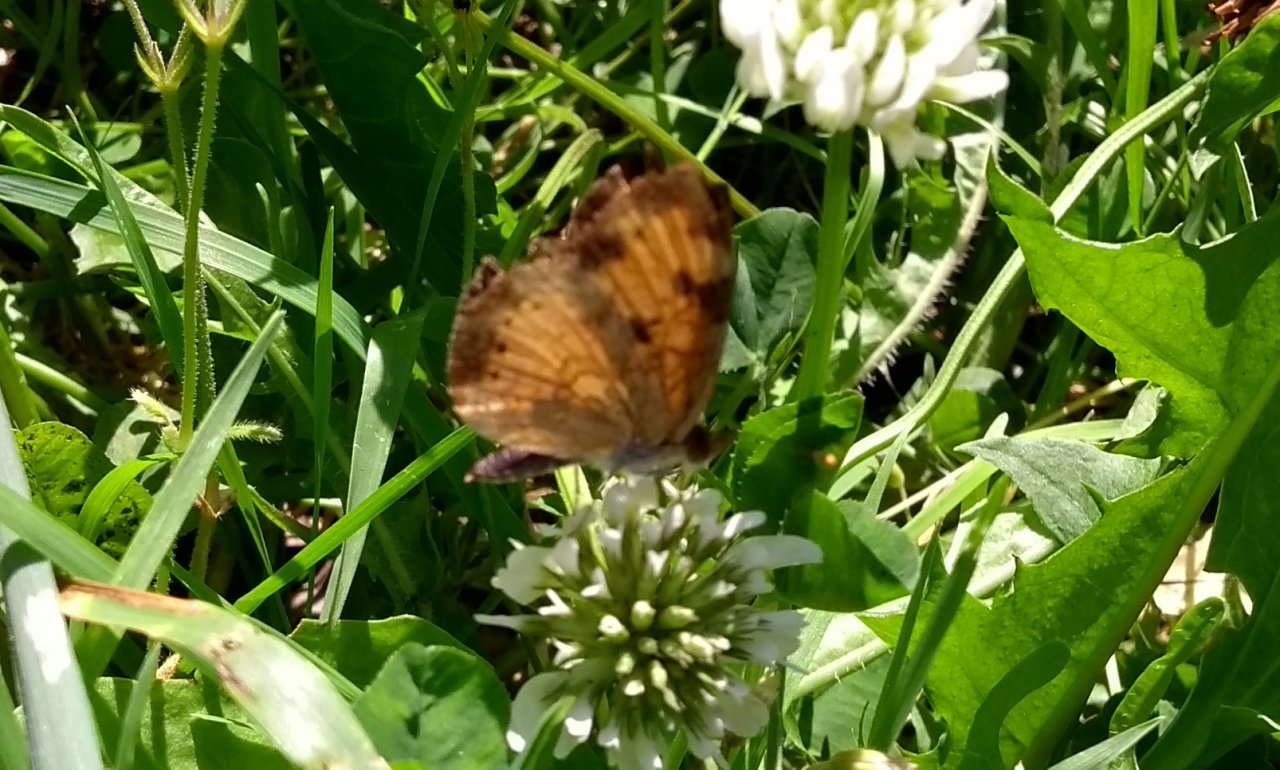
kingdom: Animalia
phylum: Arthropoda
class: Insecta
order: Lepidoptera
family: Nymphalidae
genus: Phyciodes
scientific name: Phyciodes tharos
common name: Northern Crescent
